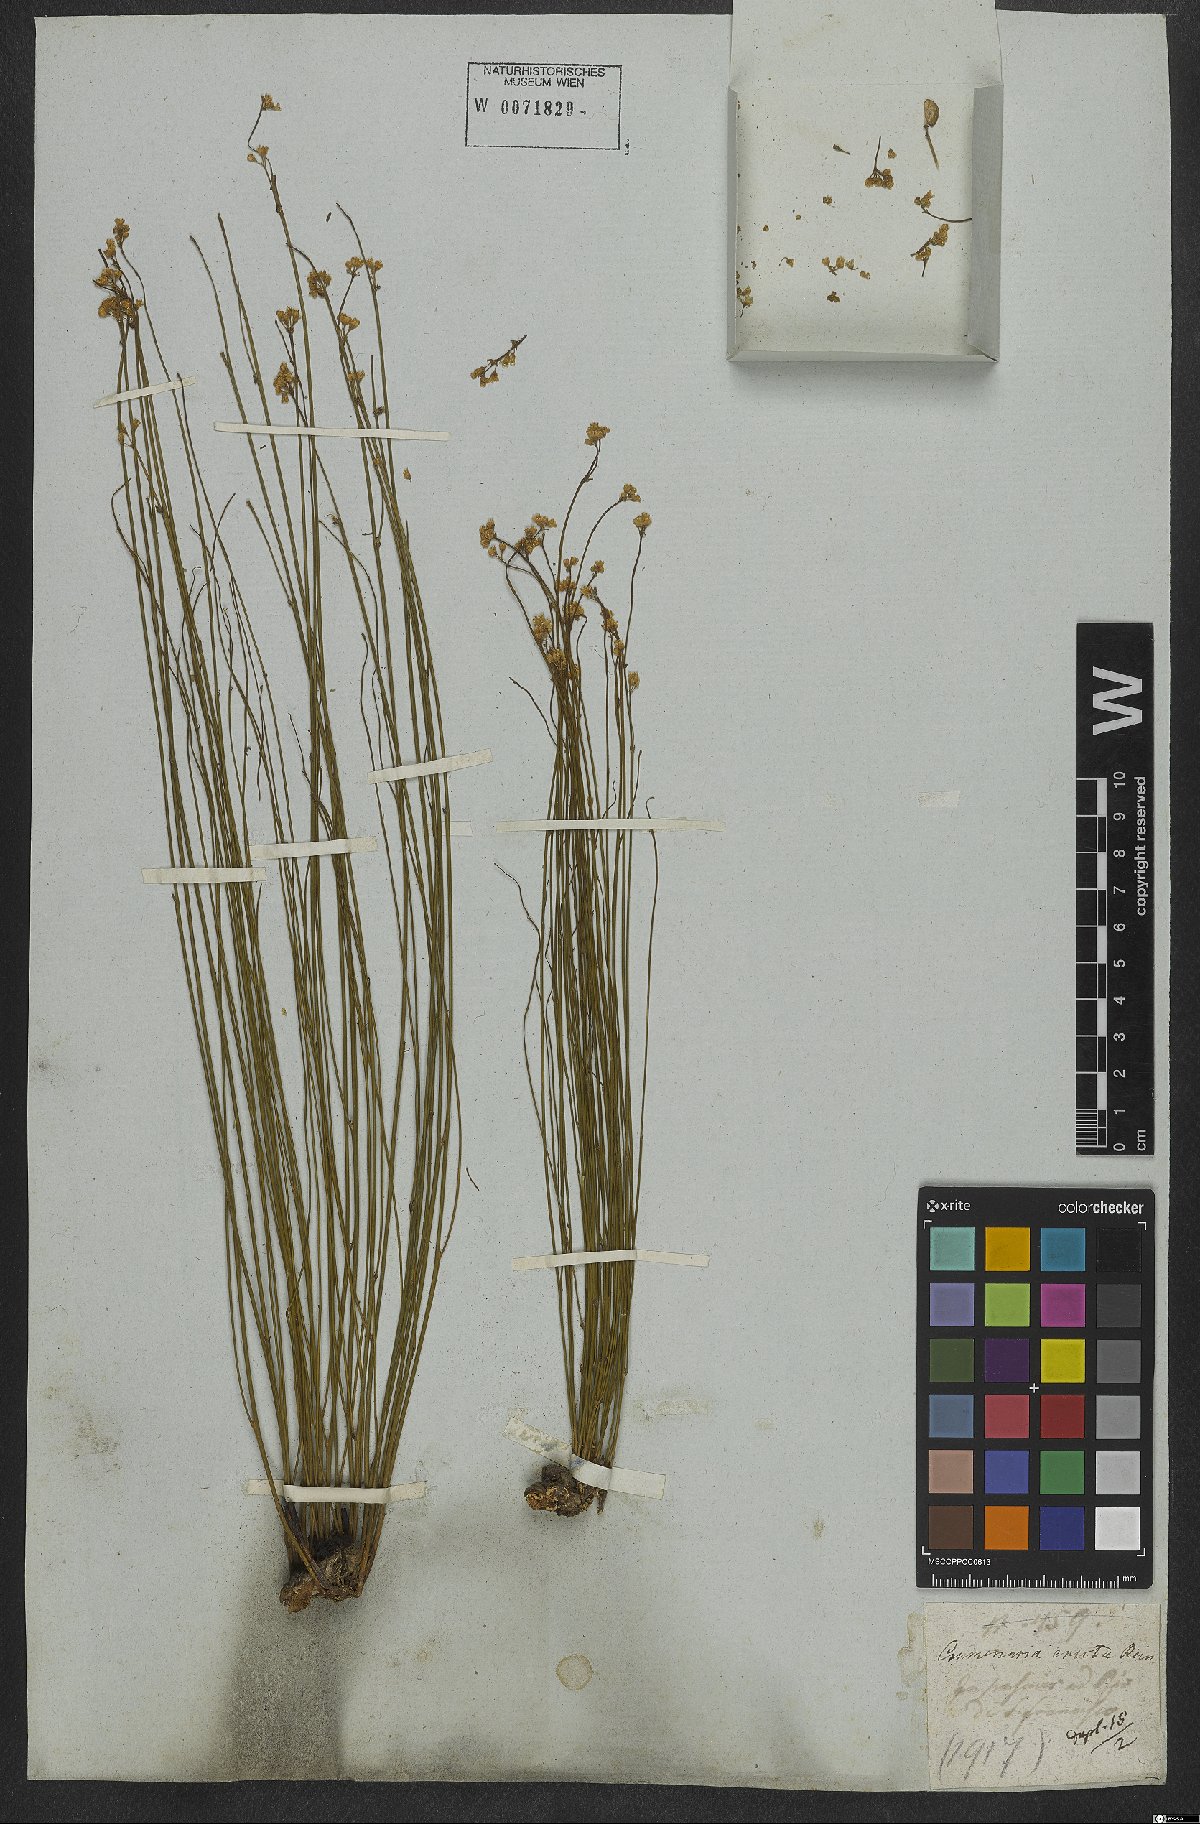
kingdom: Plantae
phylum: Tracheophyta
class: Magnoliopsida
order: Rosales
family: Rhamnaceae
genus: Crumenaria
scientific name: Crumenaria erecta
